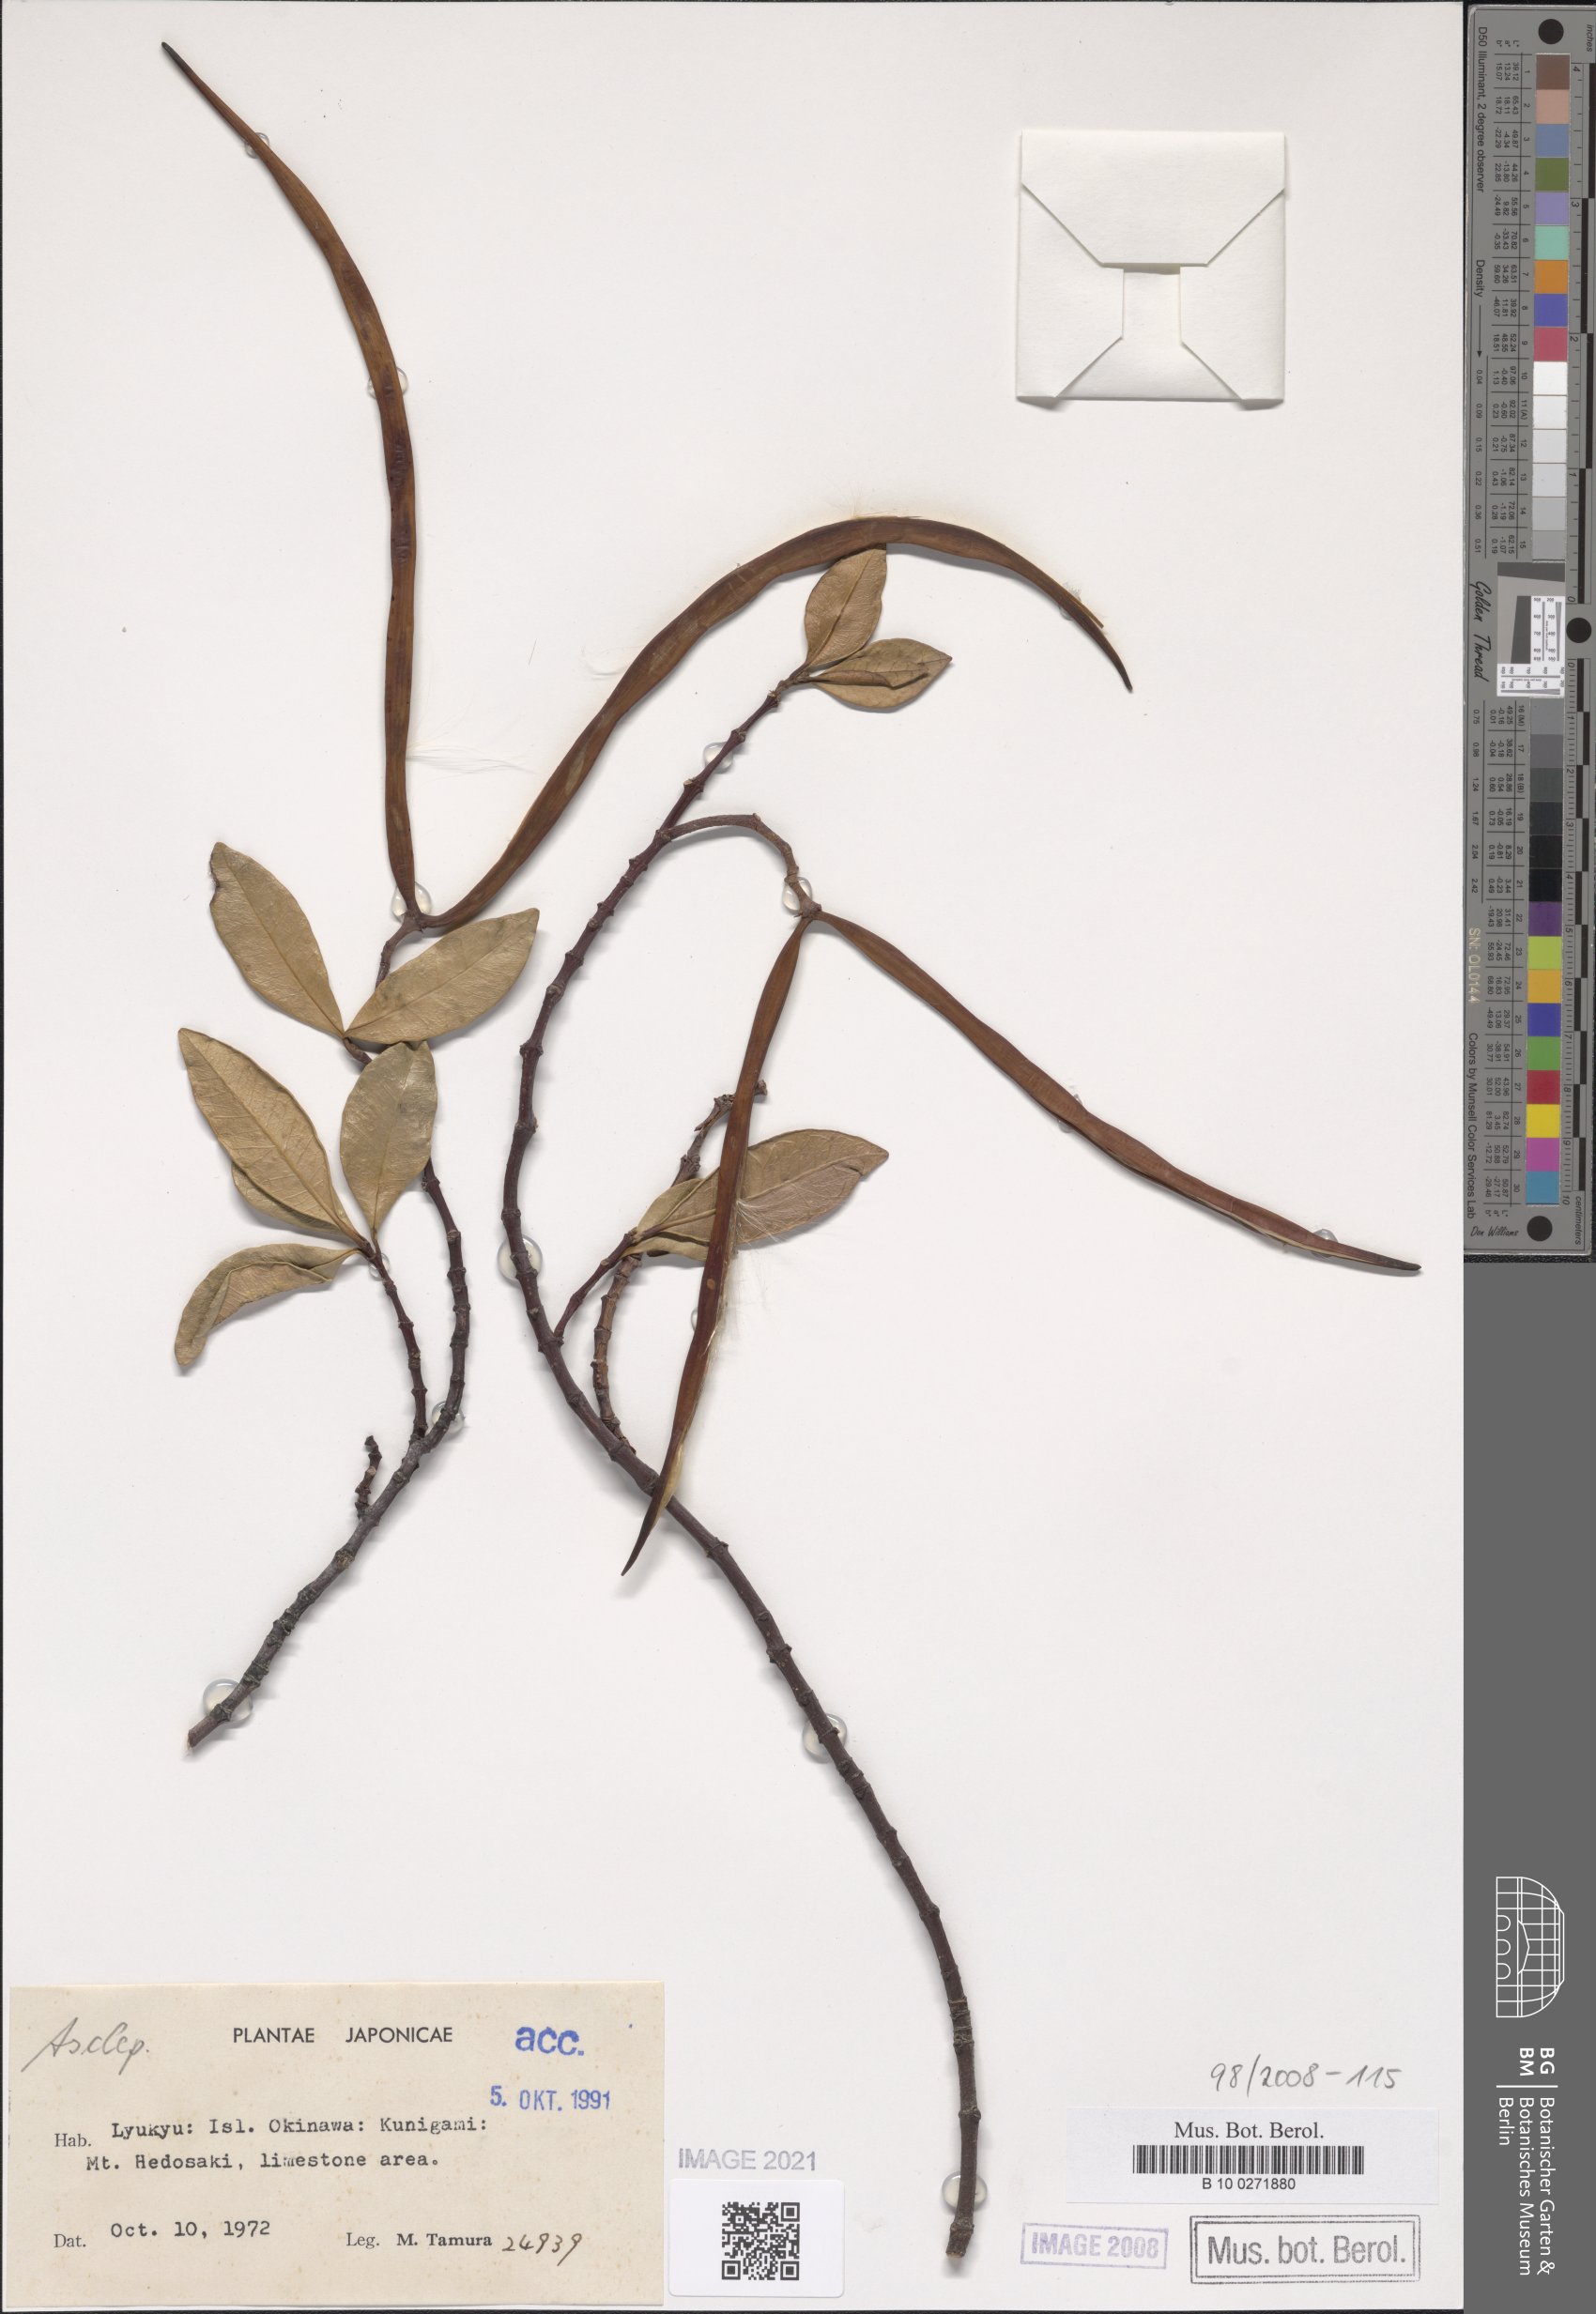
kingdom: Plantae
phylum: Tracheophyta
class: Magnoliopsida
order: Gentianales
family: Apocynaceae
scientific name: Apocynaceae
